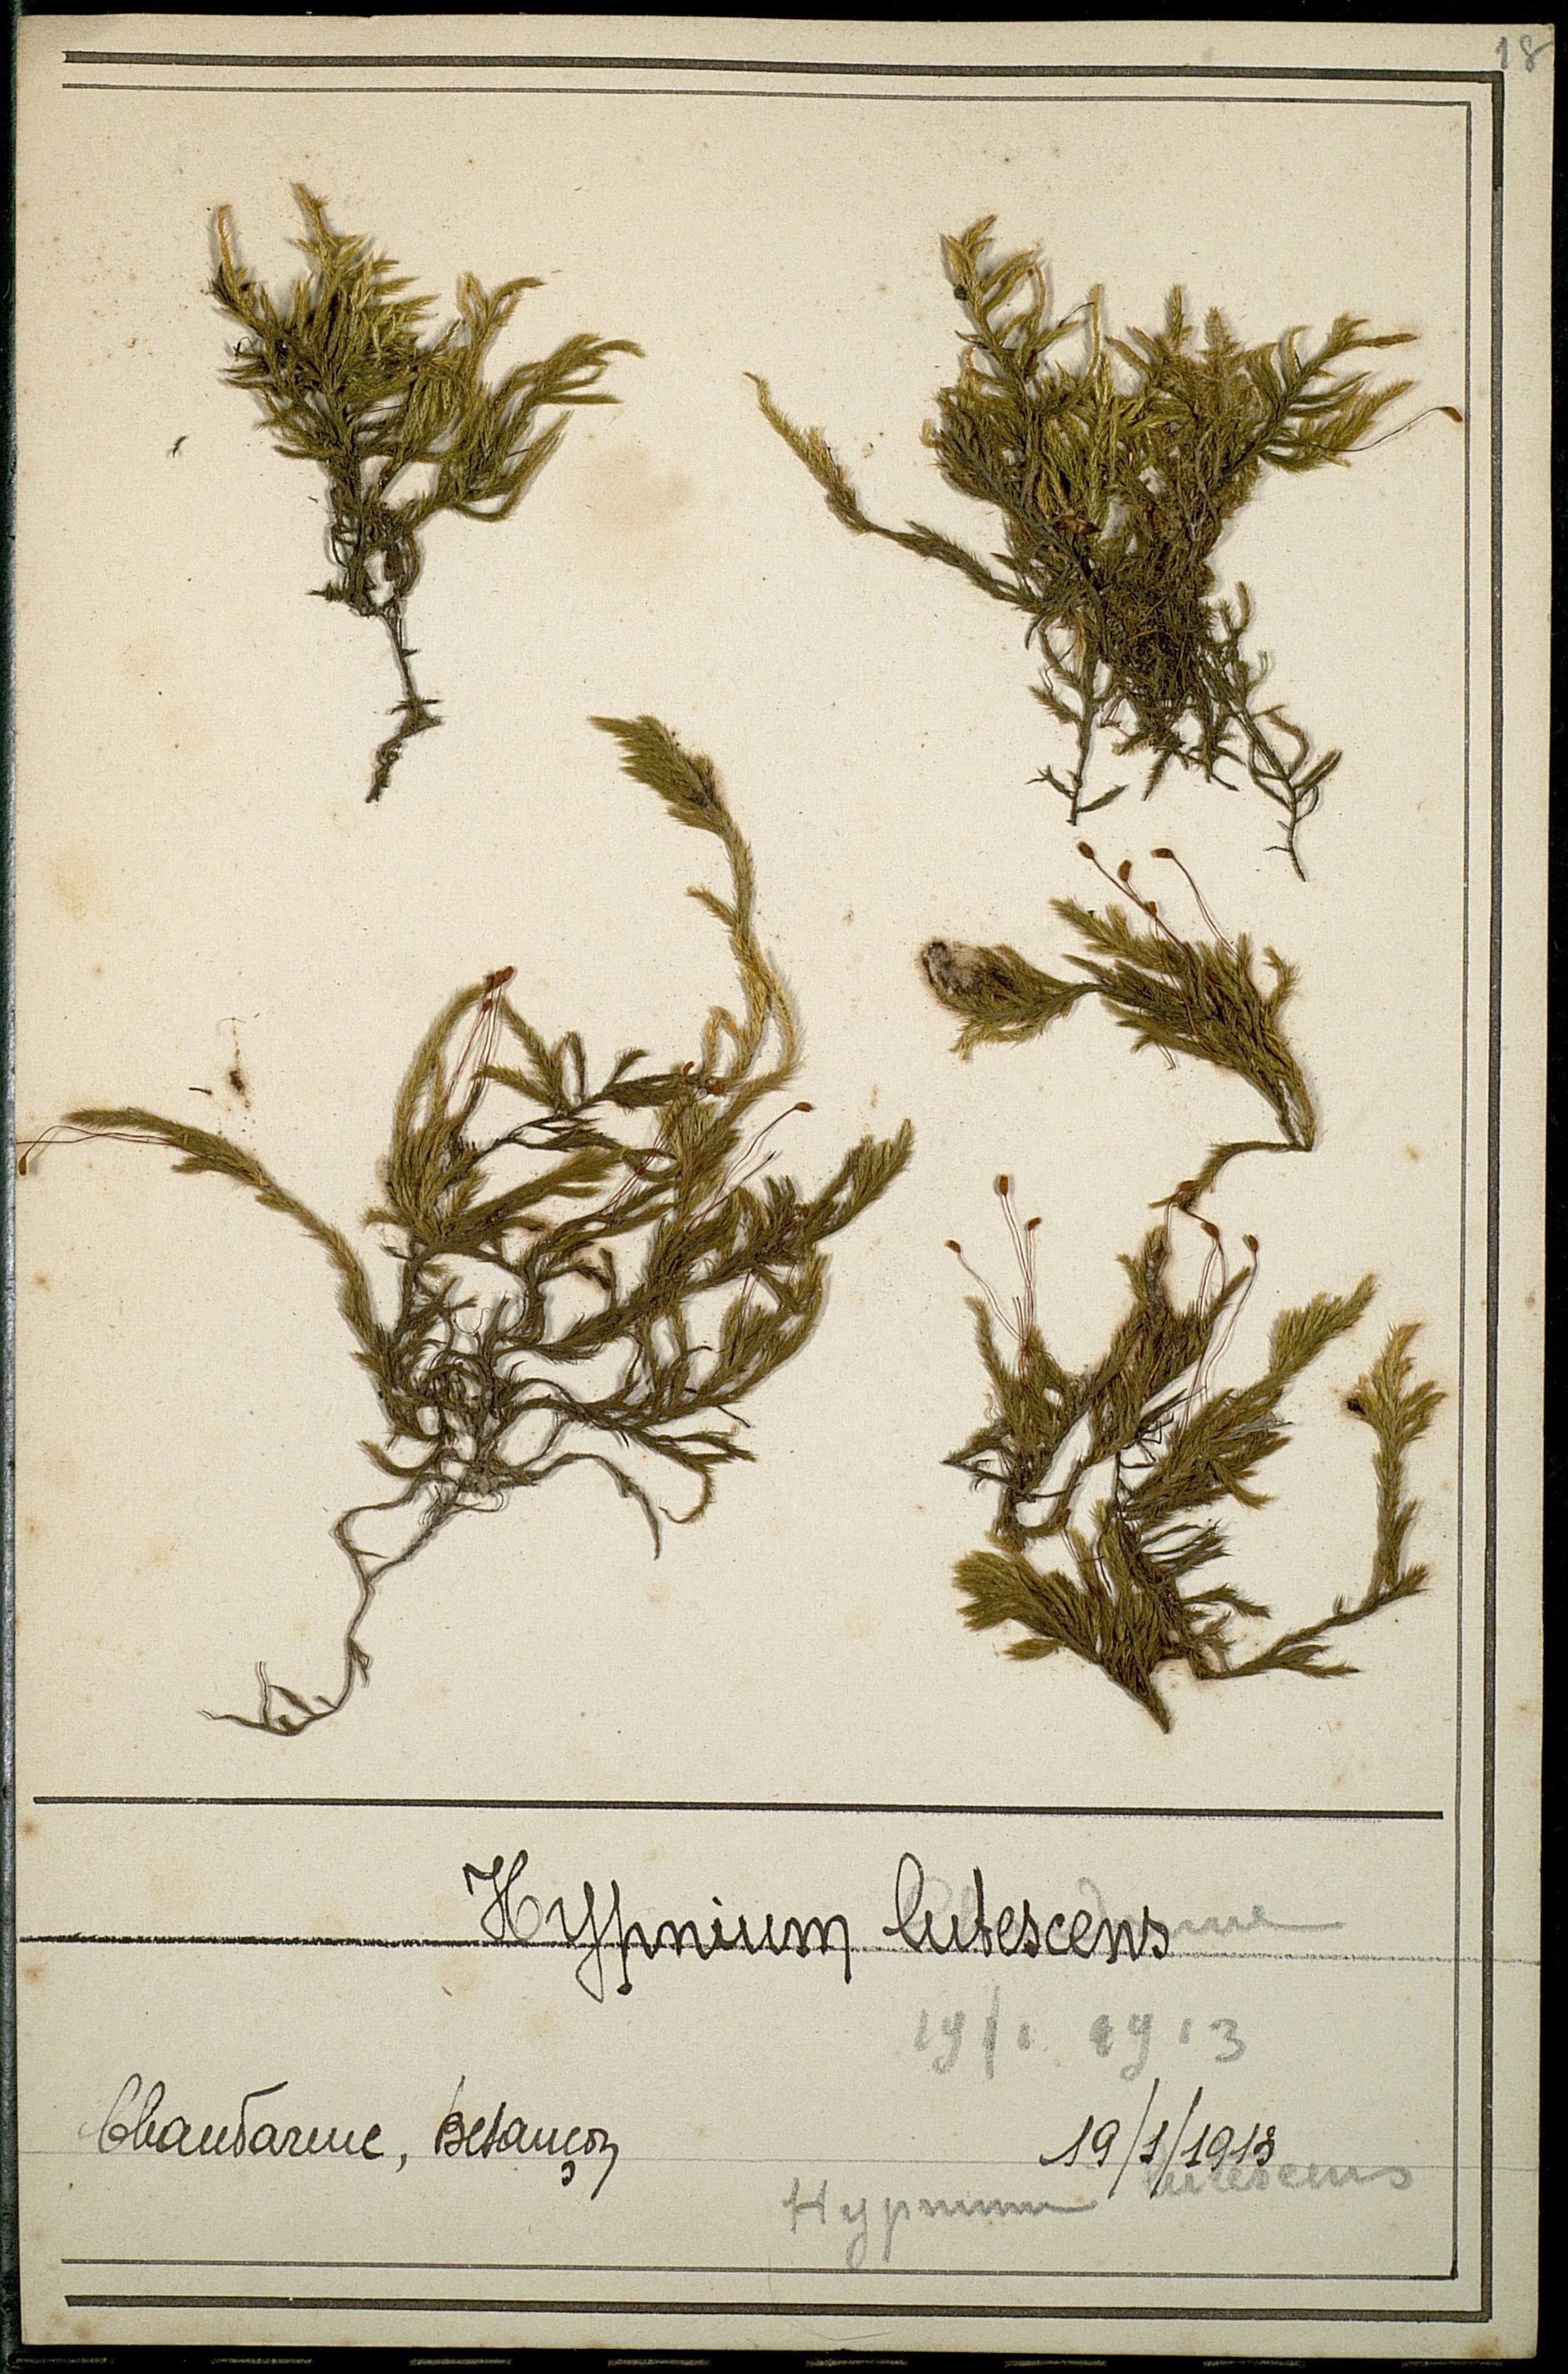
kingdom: Plantae
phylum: Bryophyta
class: Bryopsida
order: Hypnales
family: Brachytheciaceae
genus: Homalothecium
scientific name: Homalothecium lutescens
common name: Yellow feather-moss
